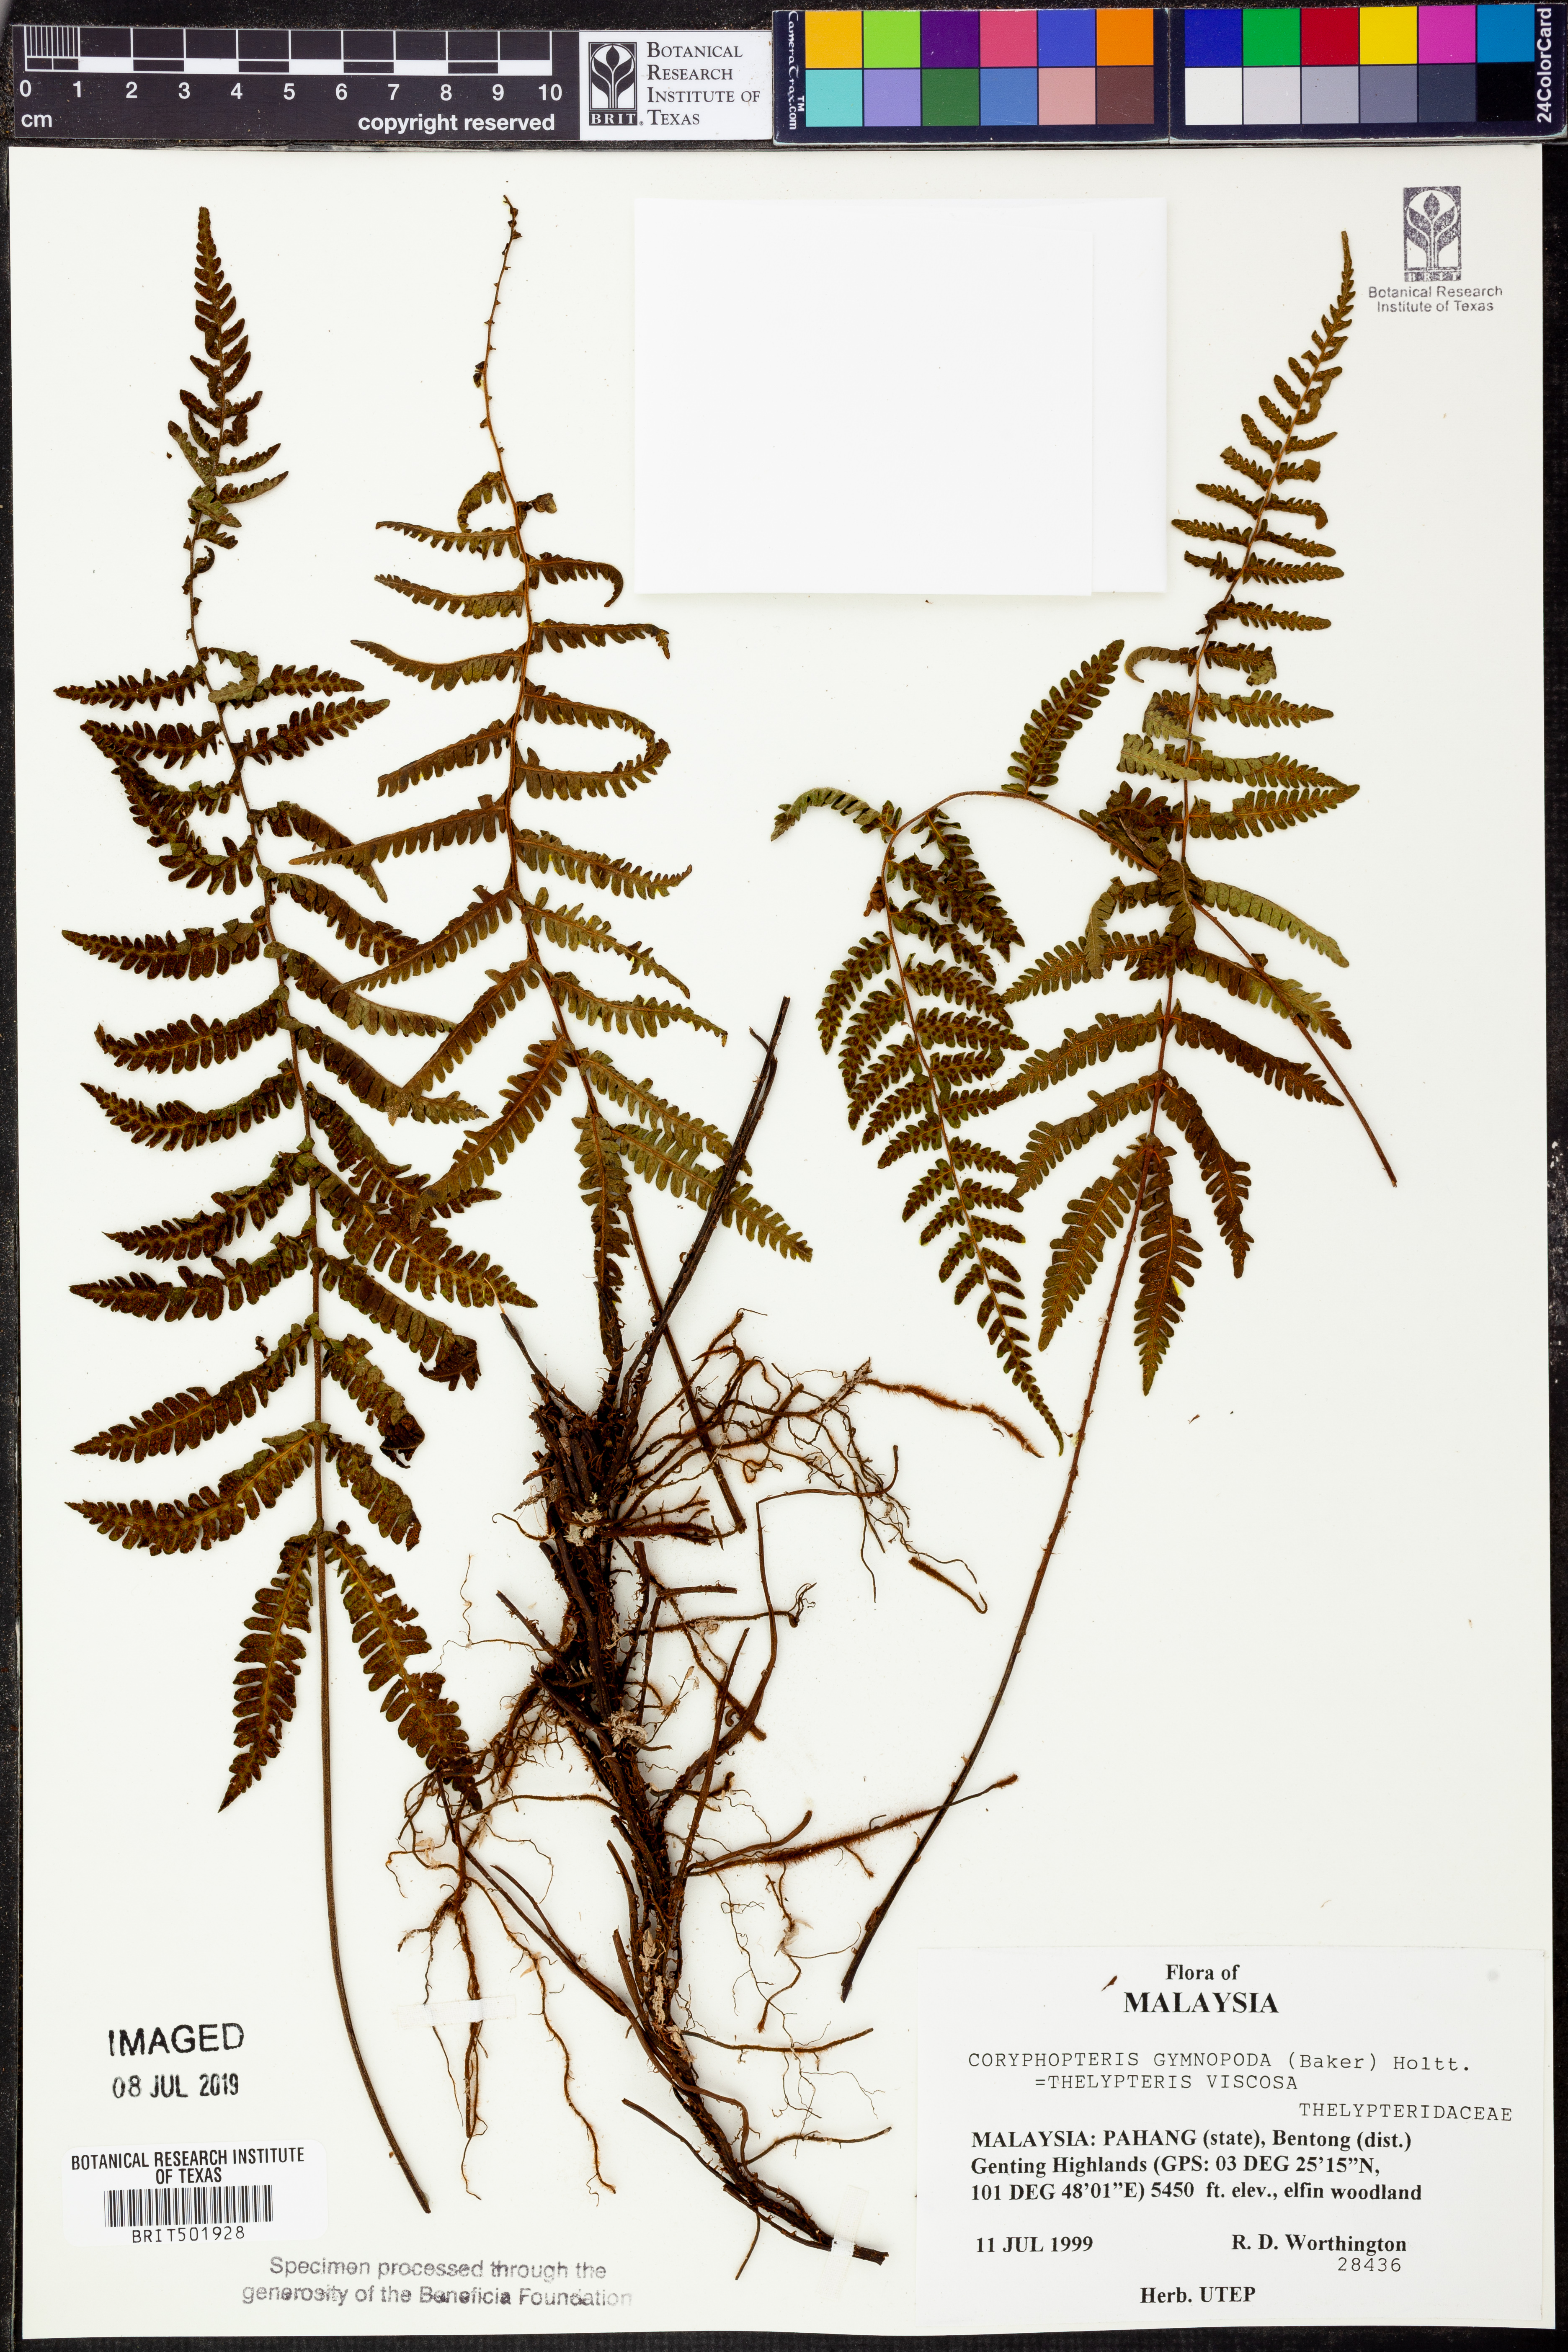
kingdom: Plantae
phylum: Tracheophyta
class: Polypodiopsida
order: Polypodiales
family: Thelypteridaceae
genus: Coryphopteris
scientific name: Coryphopteris gymnopoda
